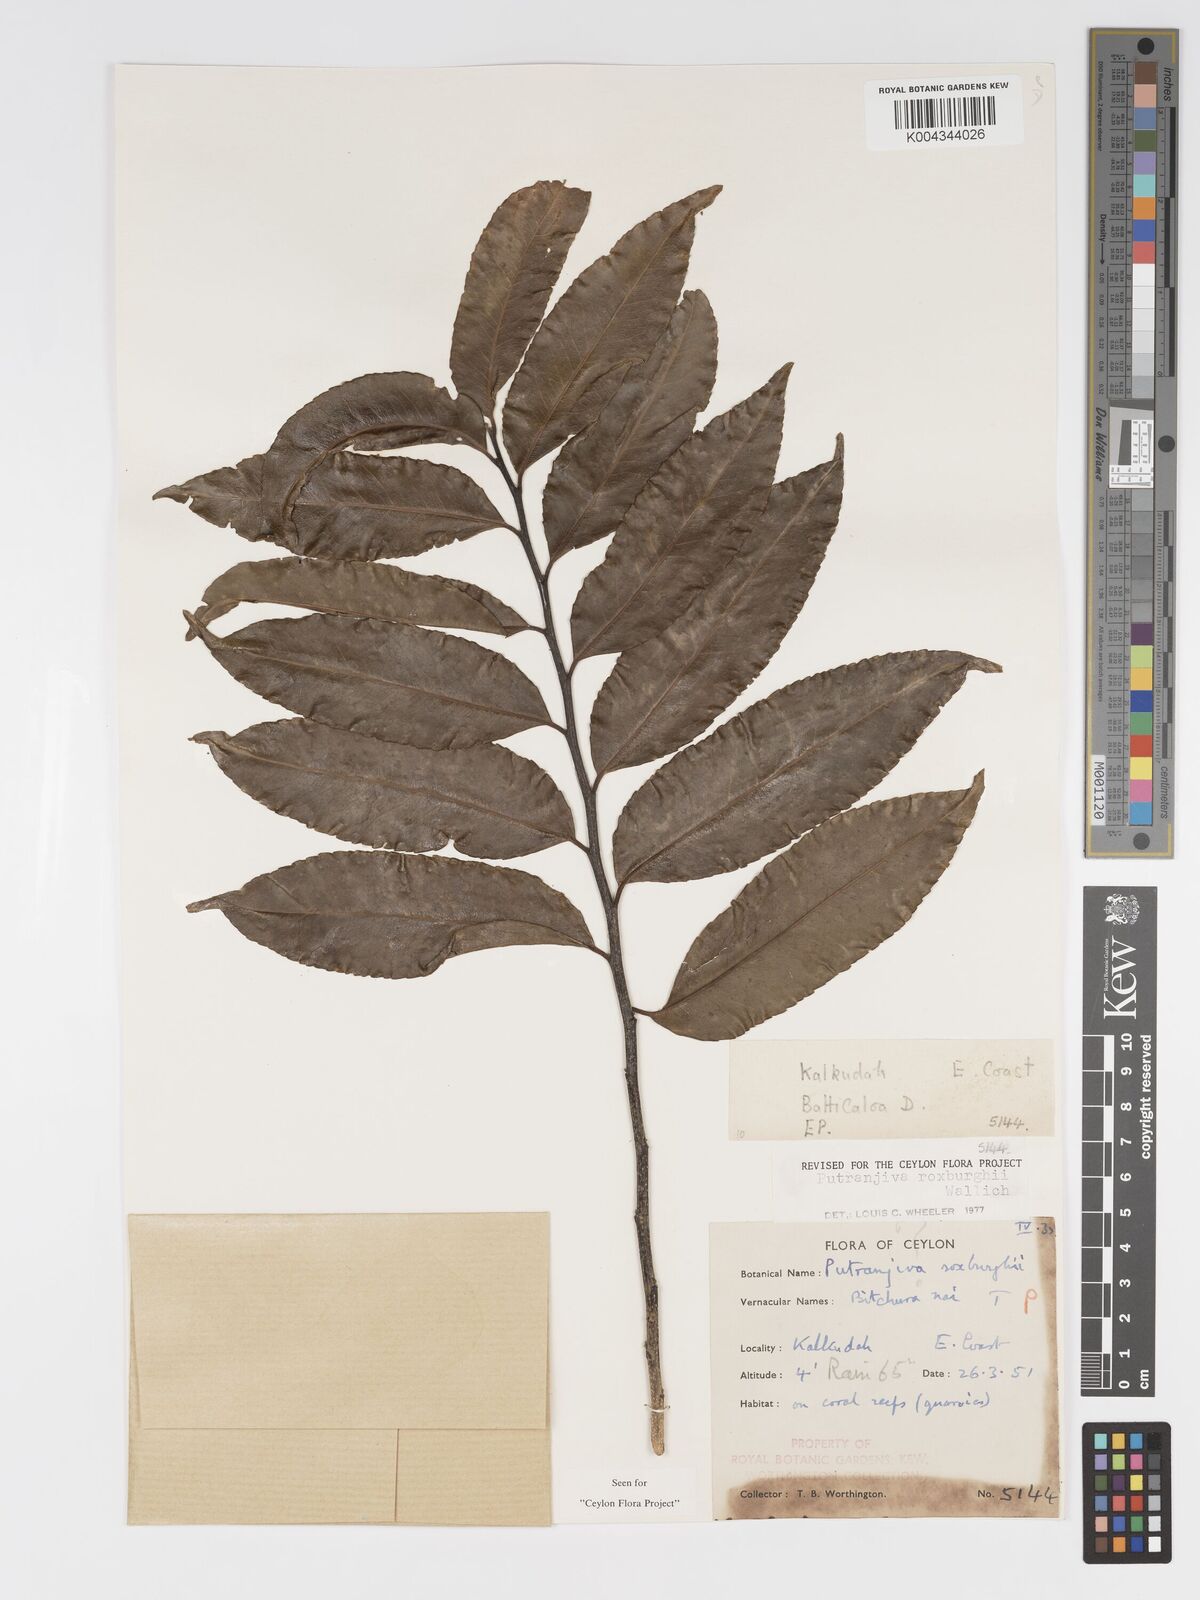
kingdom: Plantae
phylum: Tracheophyta
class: Magnoliopsida
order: Malpighiales
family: Putranjivaceae
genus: Putranjiva
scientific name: Putranjiva roxburghii
